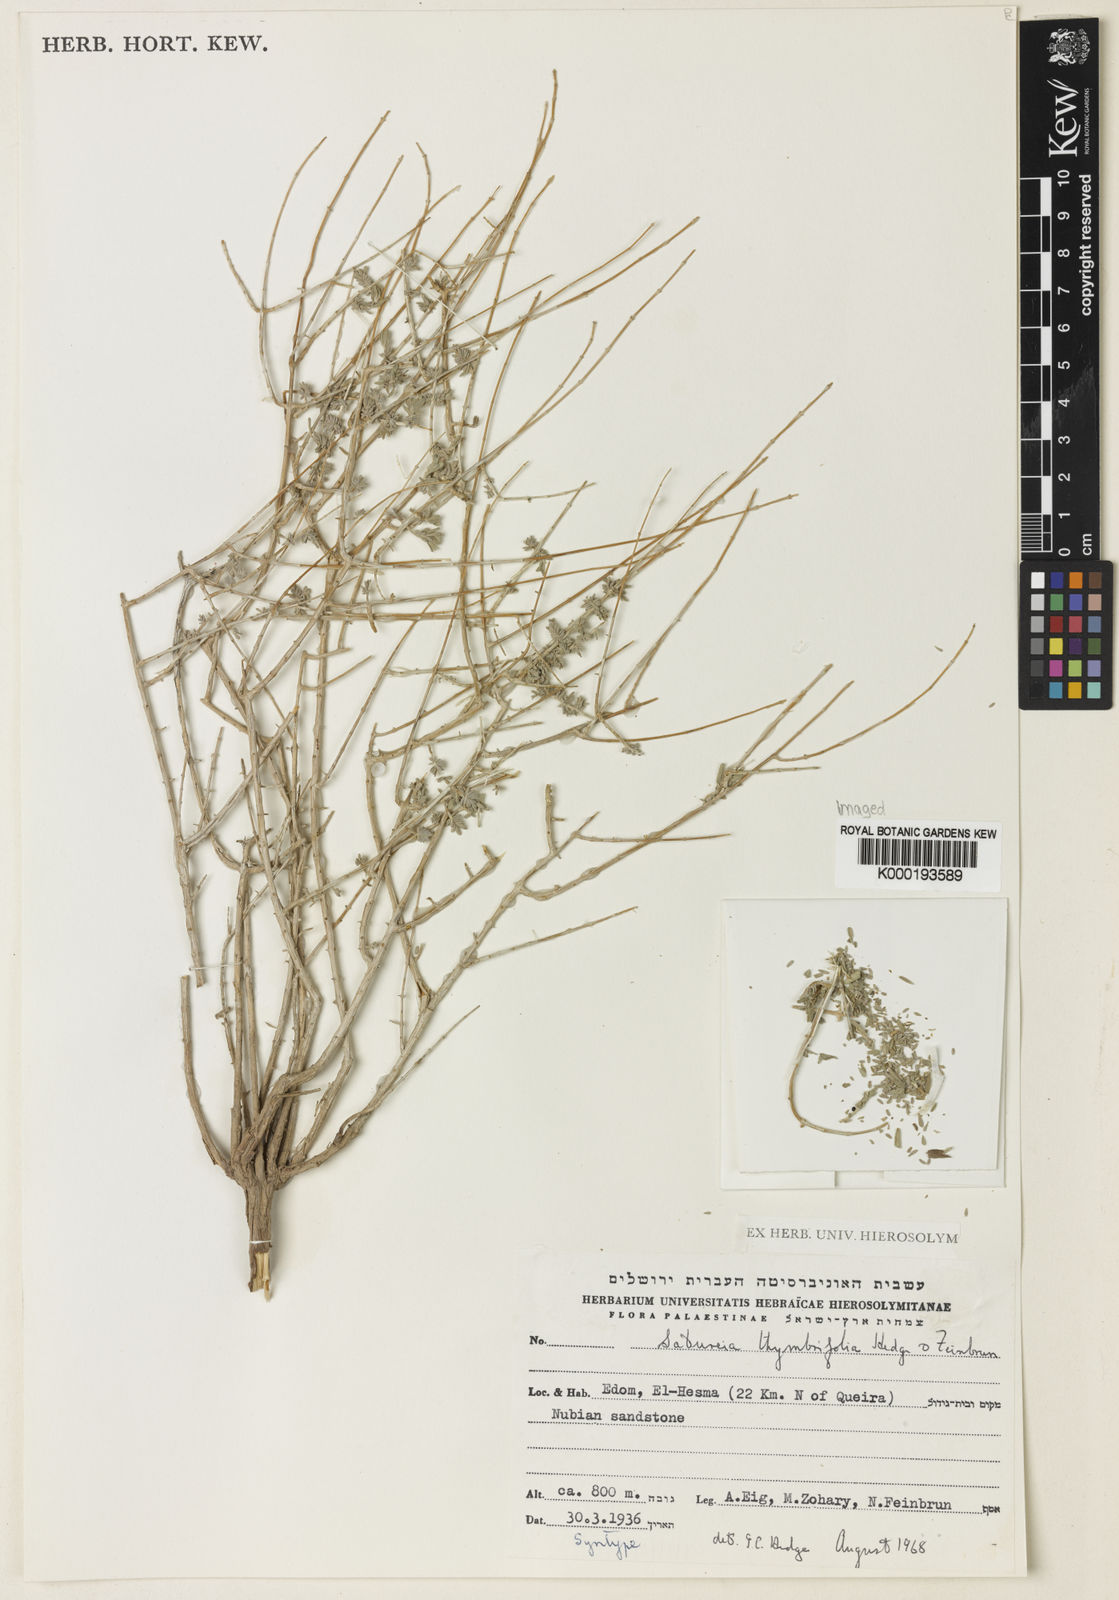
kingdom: Plantae
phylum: Tracheophyta
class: Magnoliopsida
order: Lamiales
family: Lamiaceae
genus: Thymbra
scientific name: Thymbra thymbrifolia
